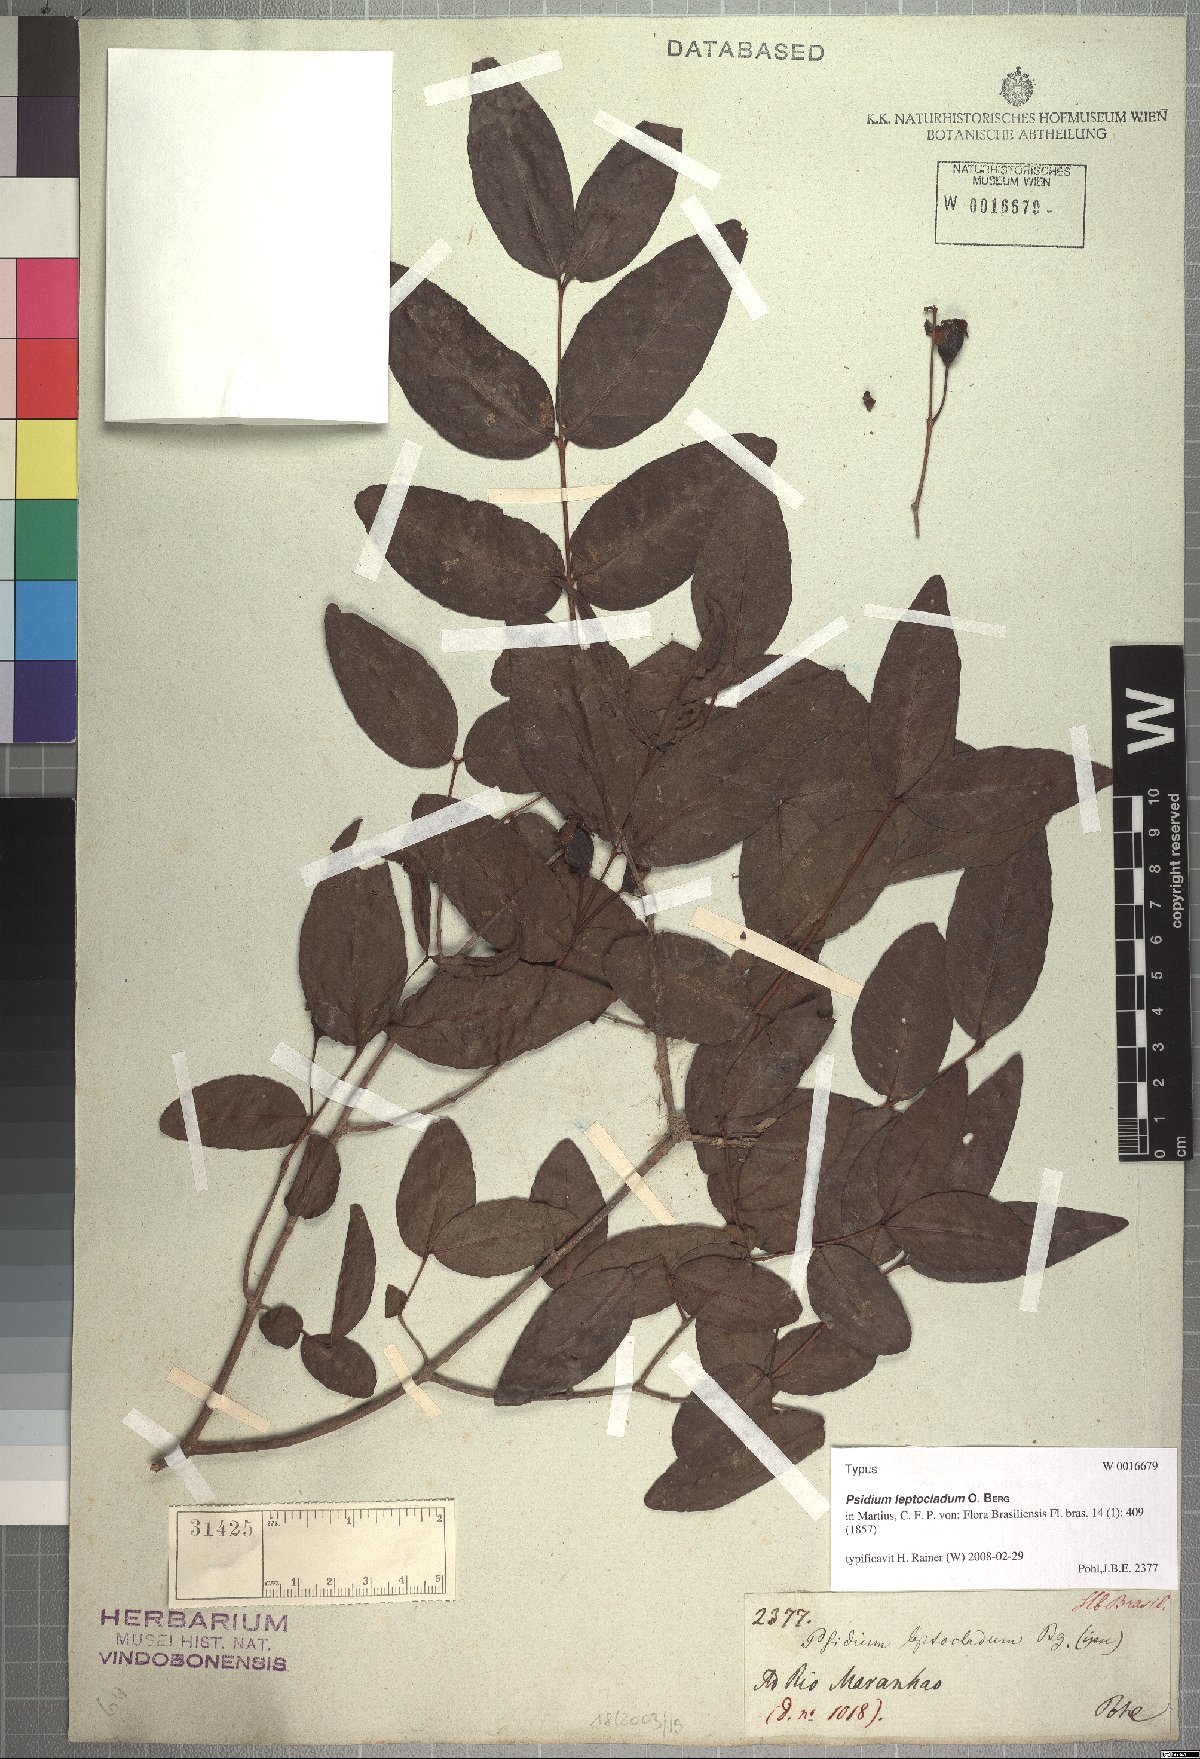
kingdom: Plantae
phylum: Tracheophyta
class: Magnoliopsida
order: Myrtales
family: Myrtaceae
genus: Psidium
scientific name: Psidium striatulum
